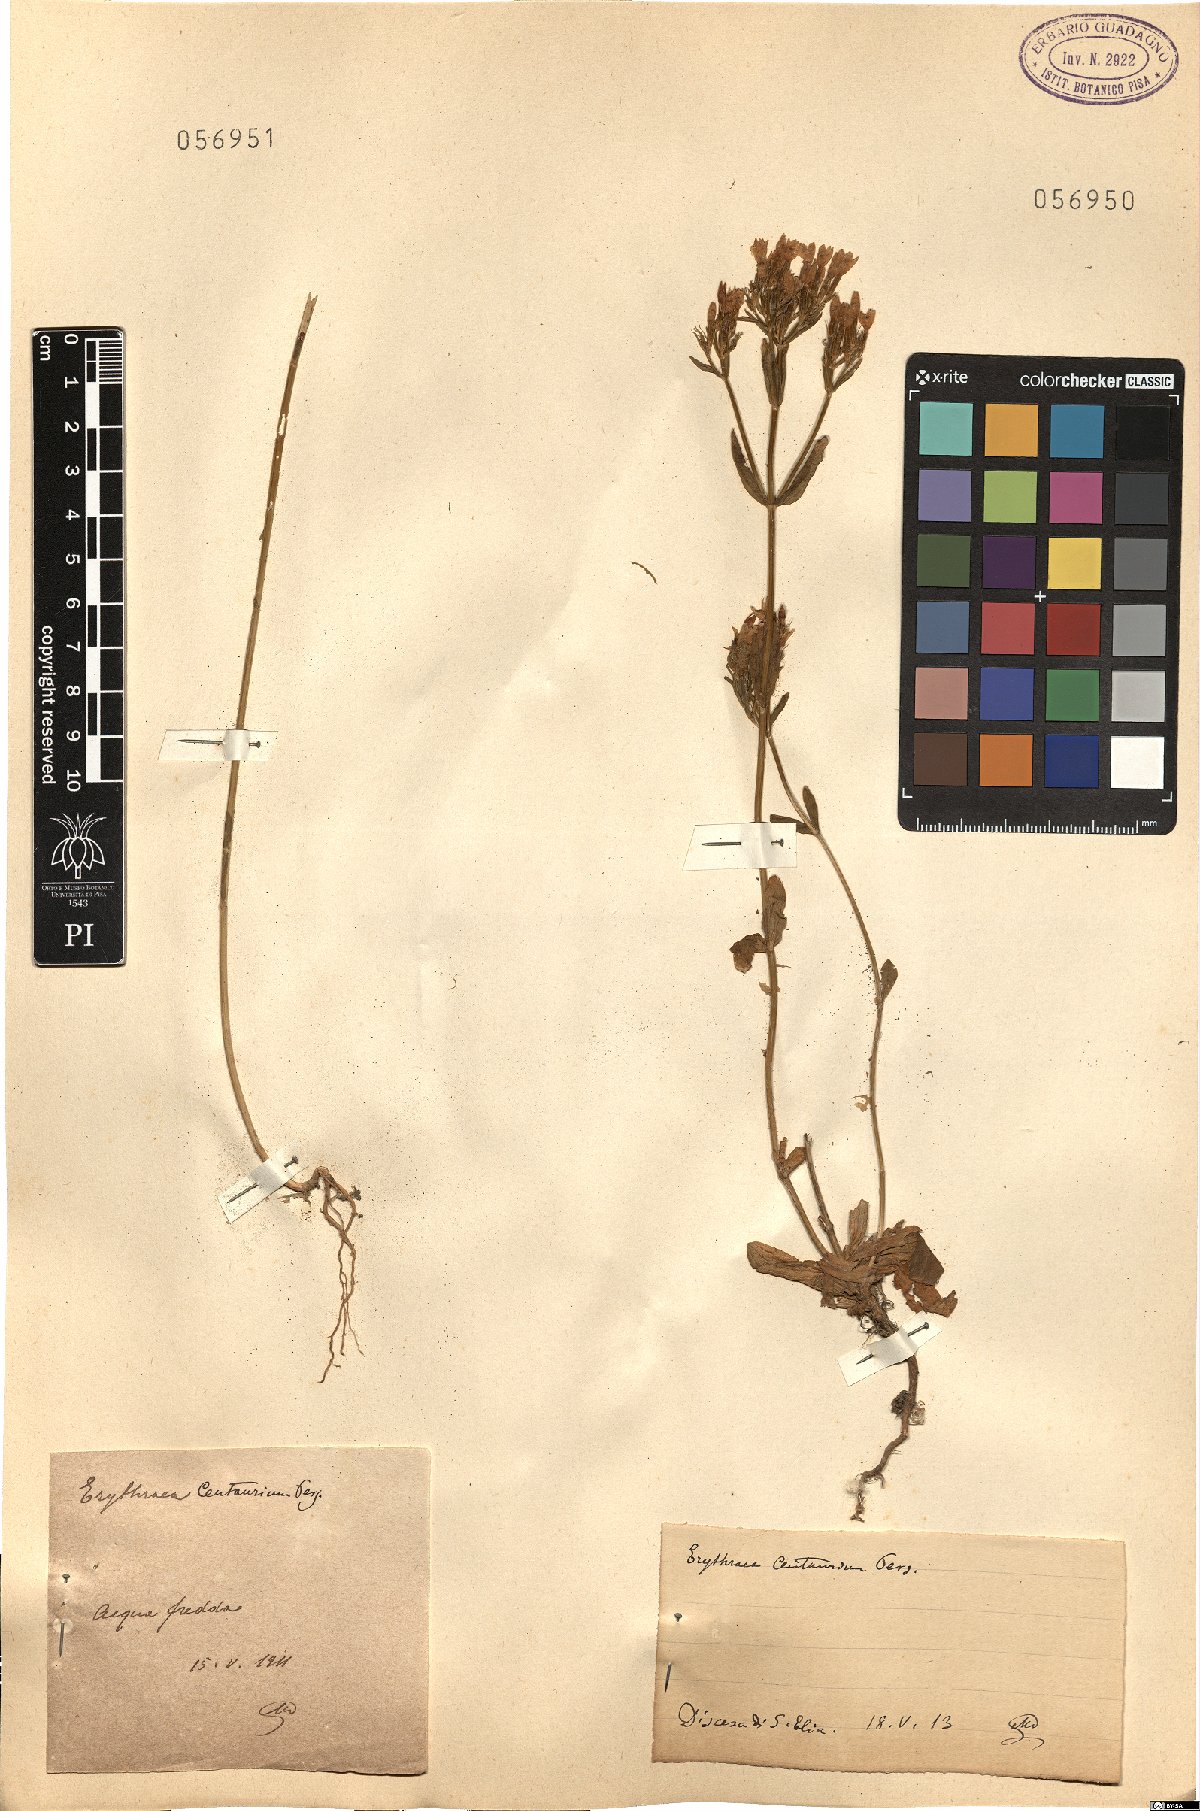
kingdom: Plantae
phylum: Tracheophyta
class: Magnoliopsida
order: Gentianales
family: Gentianaceae
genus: Centaurium
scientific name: Centaurium erythraea
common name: Common centaury
